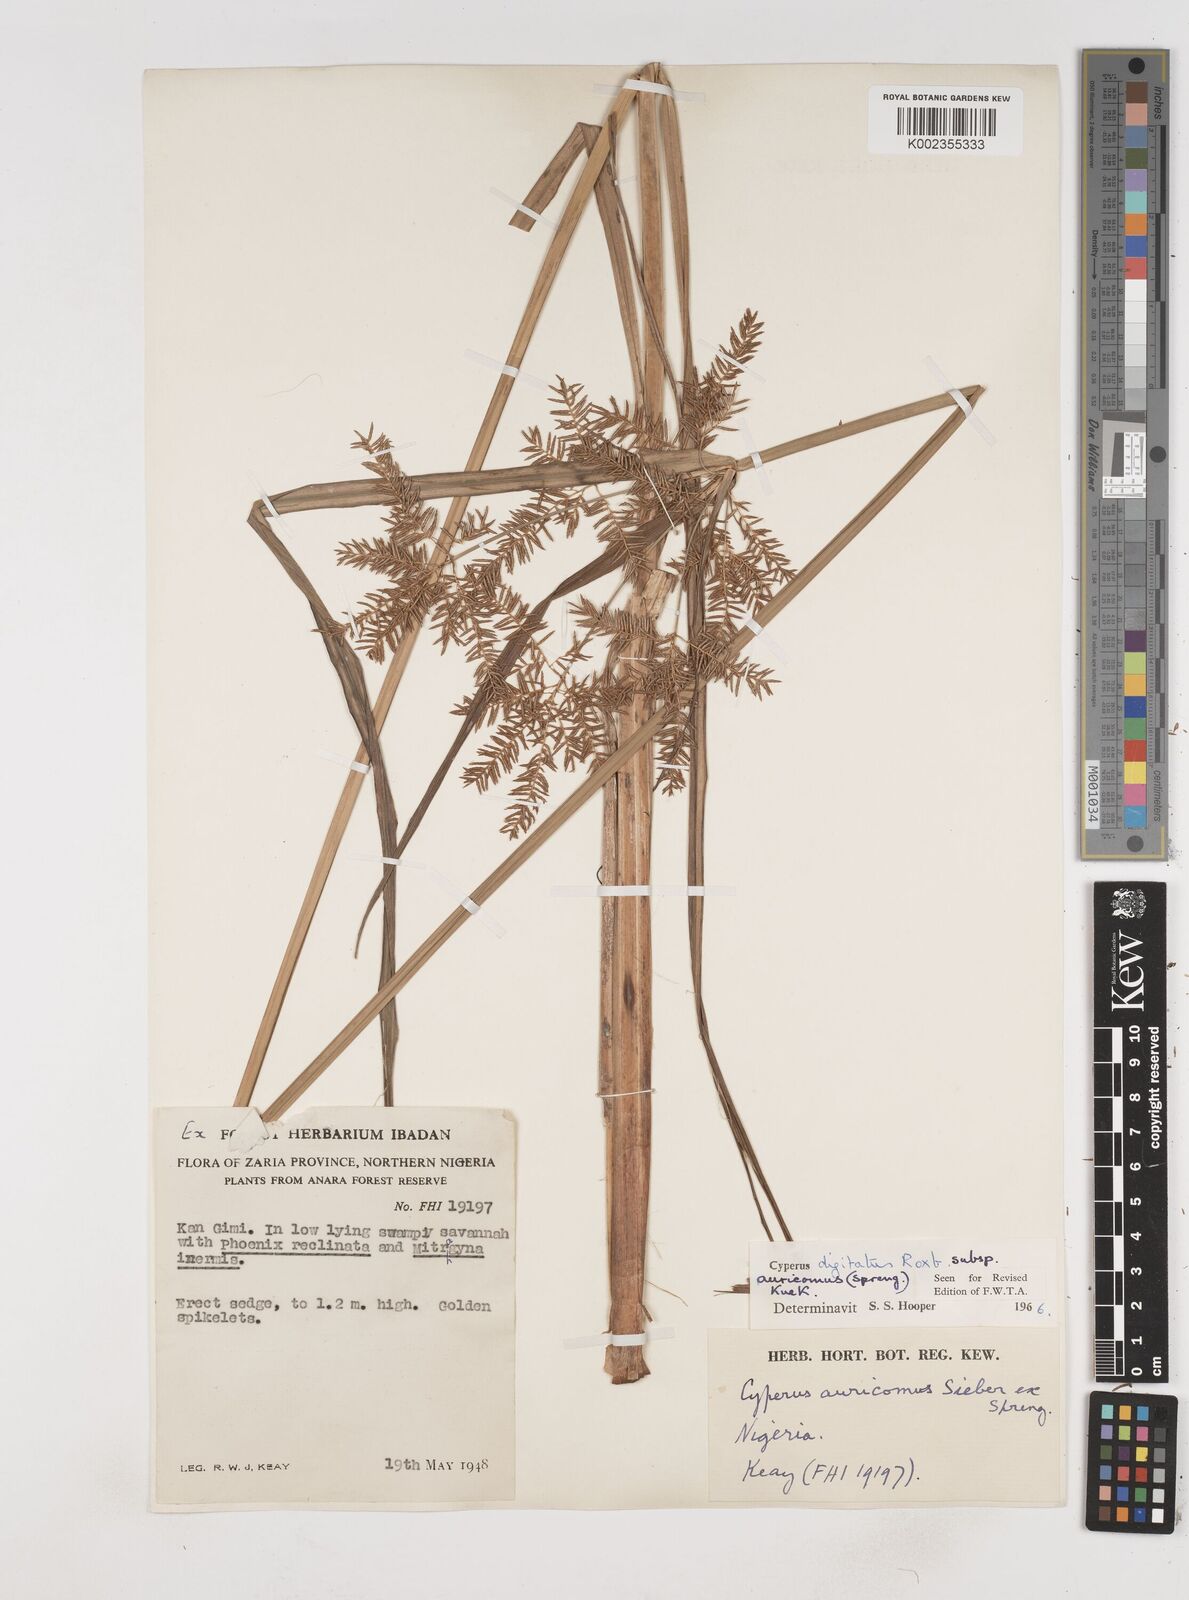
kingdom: Plantae
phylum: Tracheophyta
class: Liliopsida
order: Poales
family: Cyperaceae
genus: Cyperus
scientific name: Cyperus digitatus
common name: Finger flatsedge
